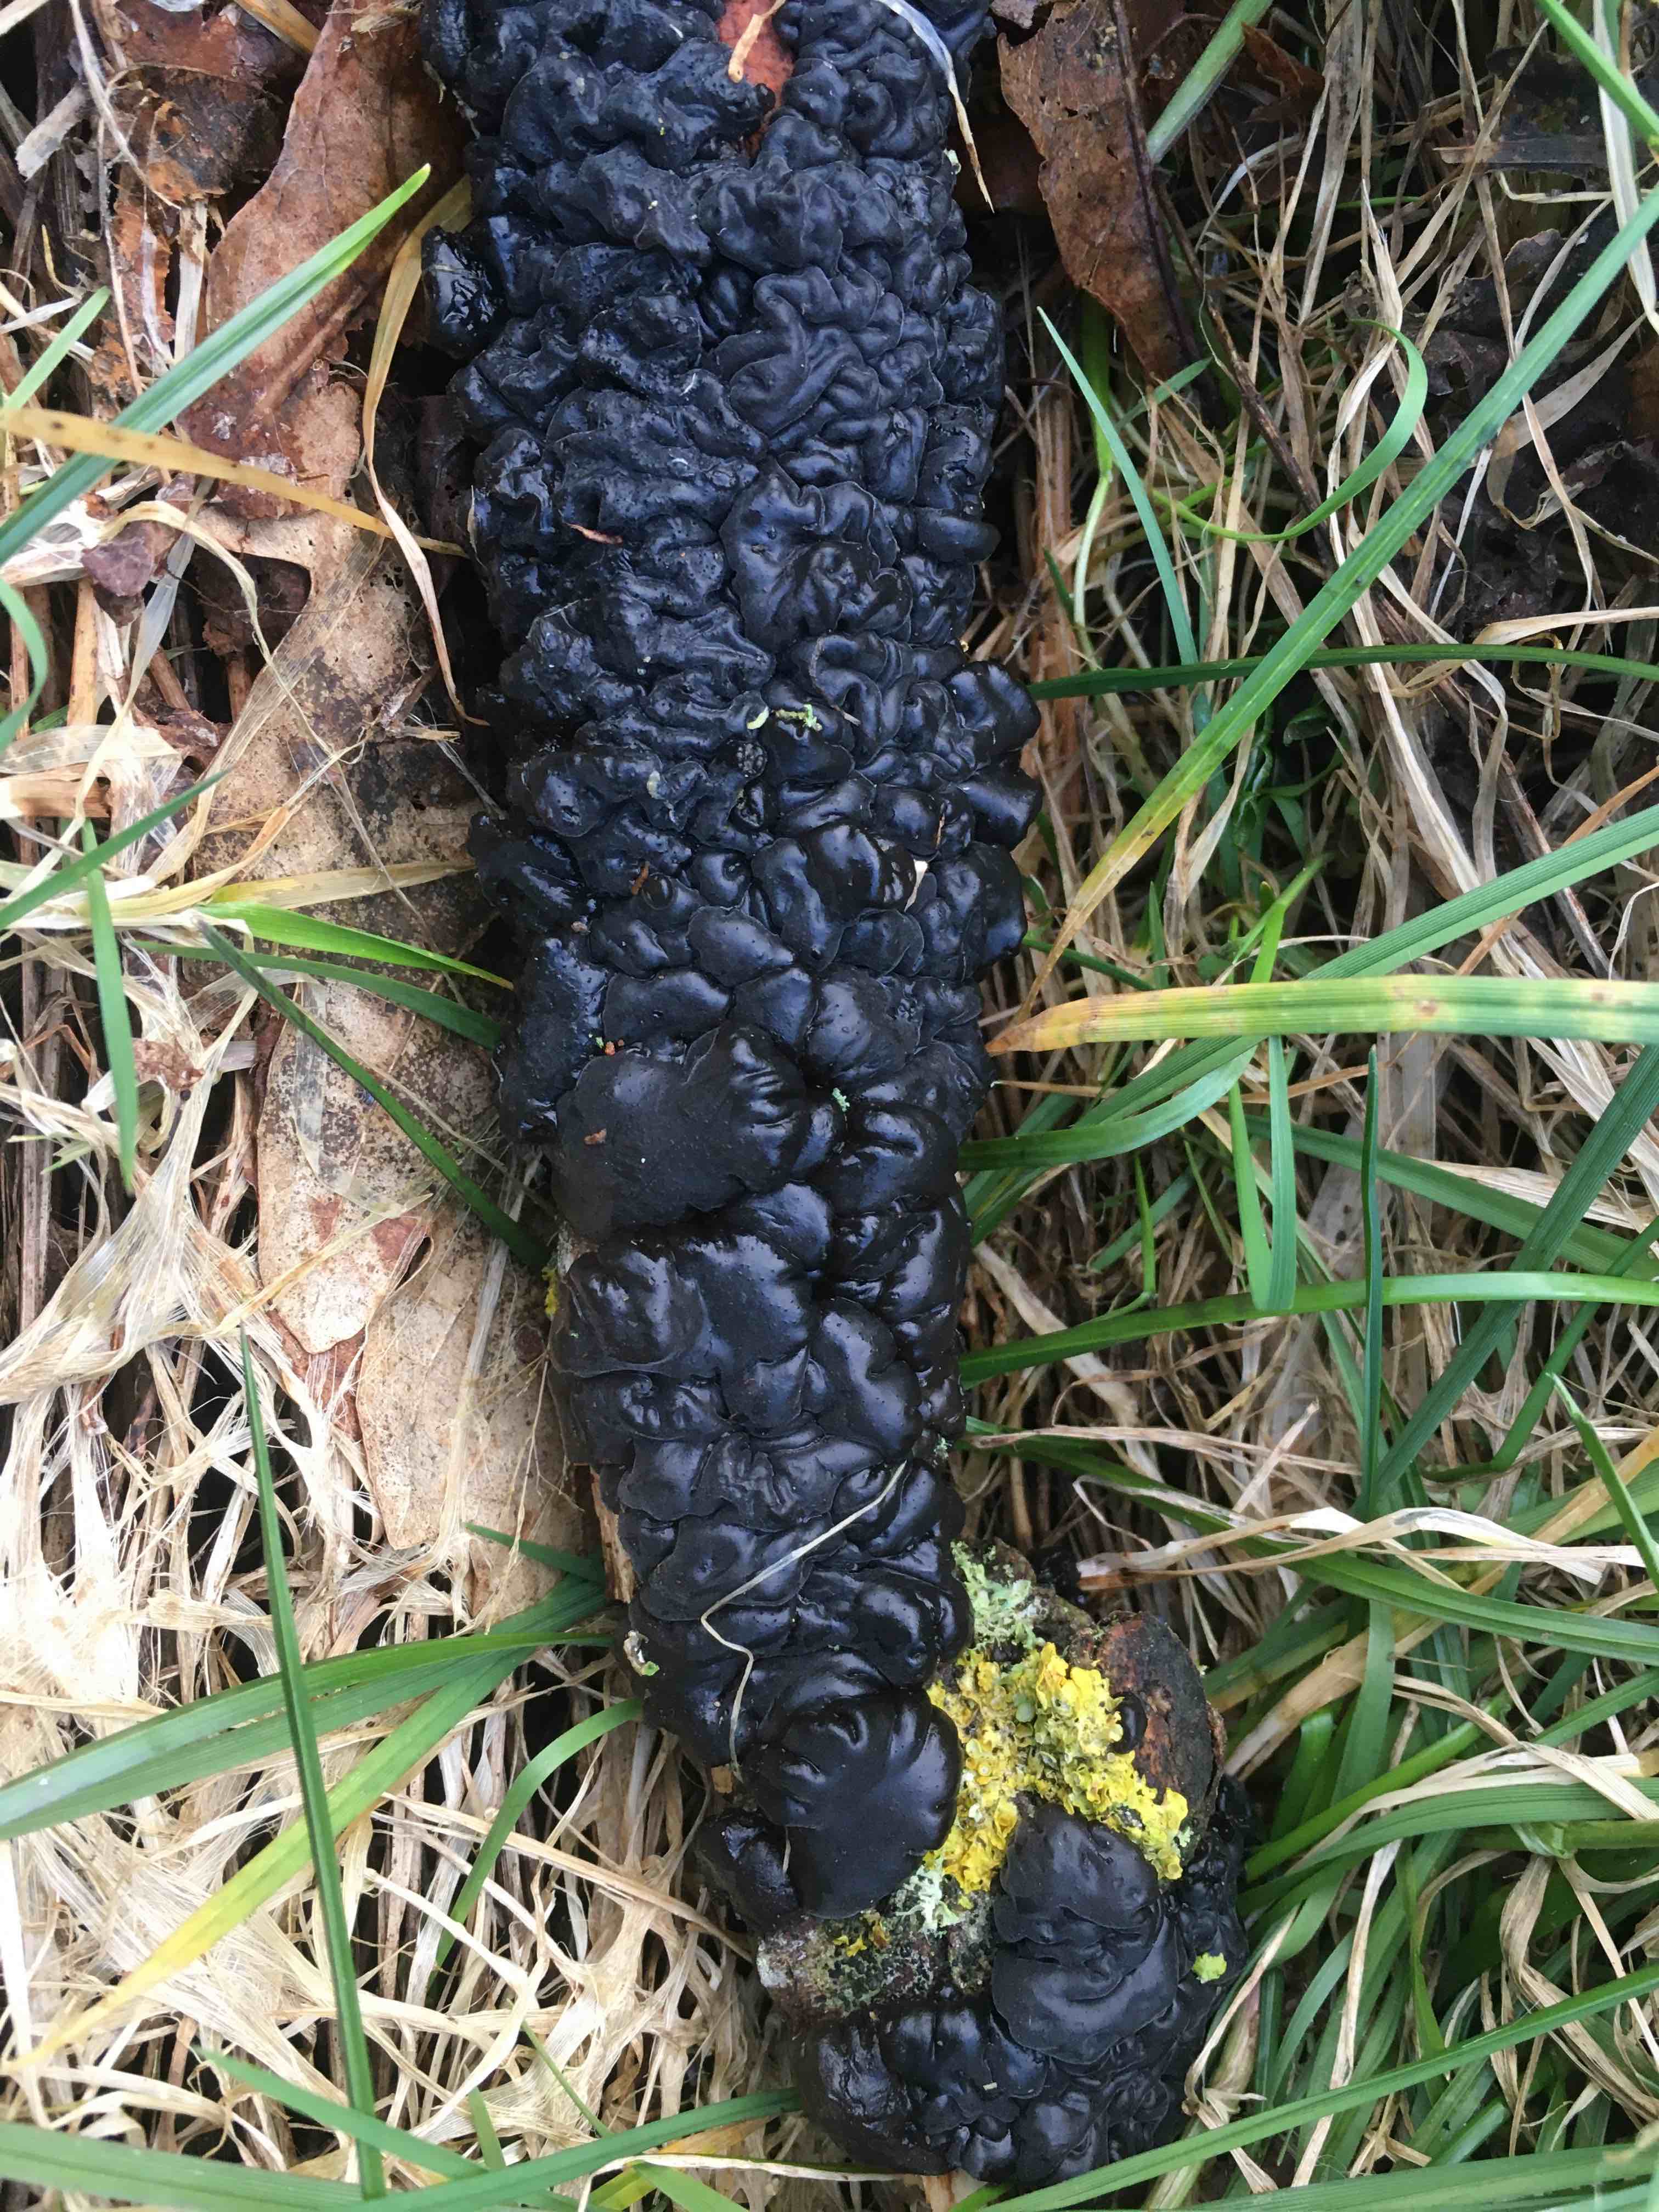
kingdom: Fungi
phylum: Basidiomycota
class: Agaricomycetes
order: Auriculariales
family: Auriculariaceae
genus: Exidia
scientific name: Exidia nigricans
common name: almindelig bævretop
